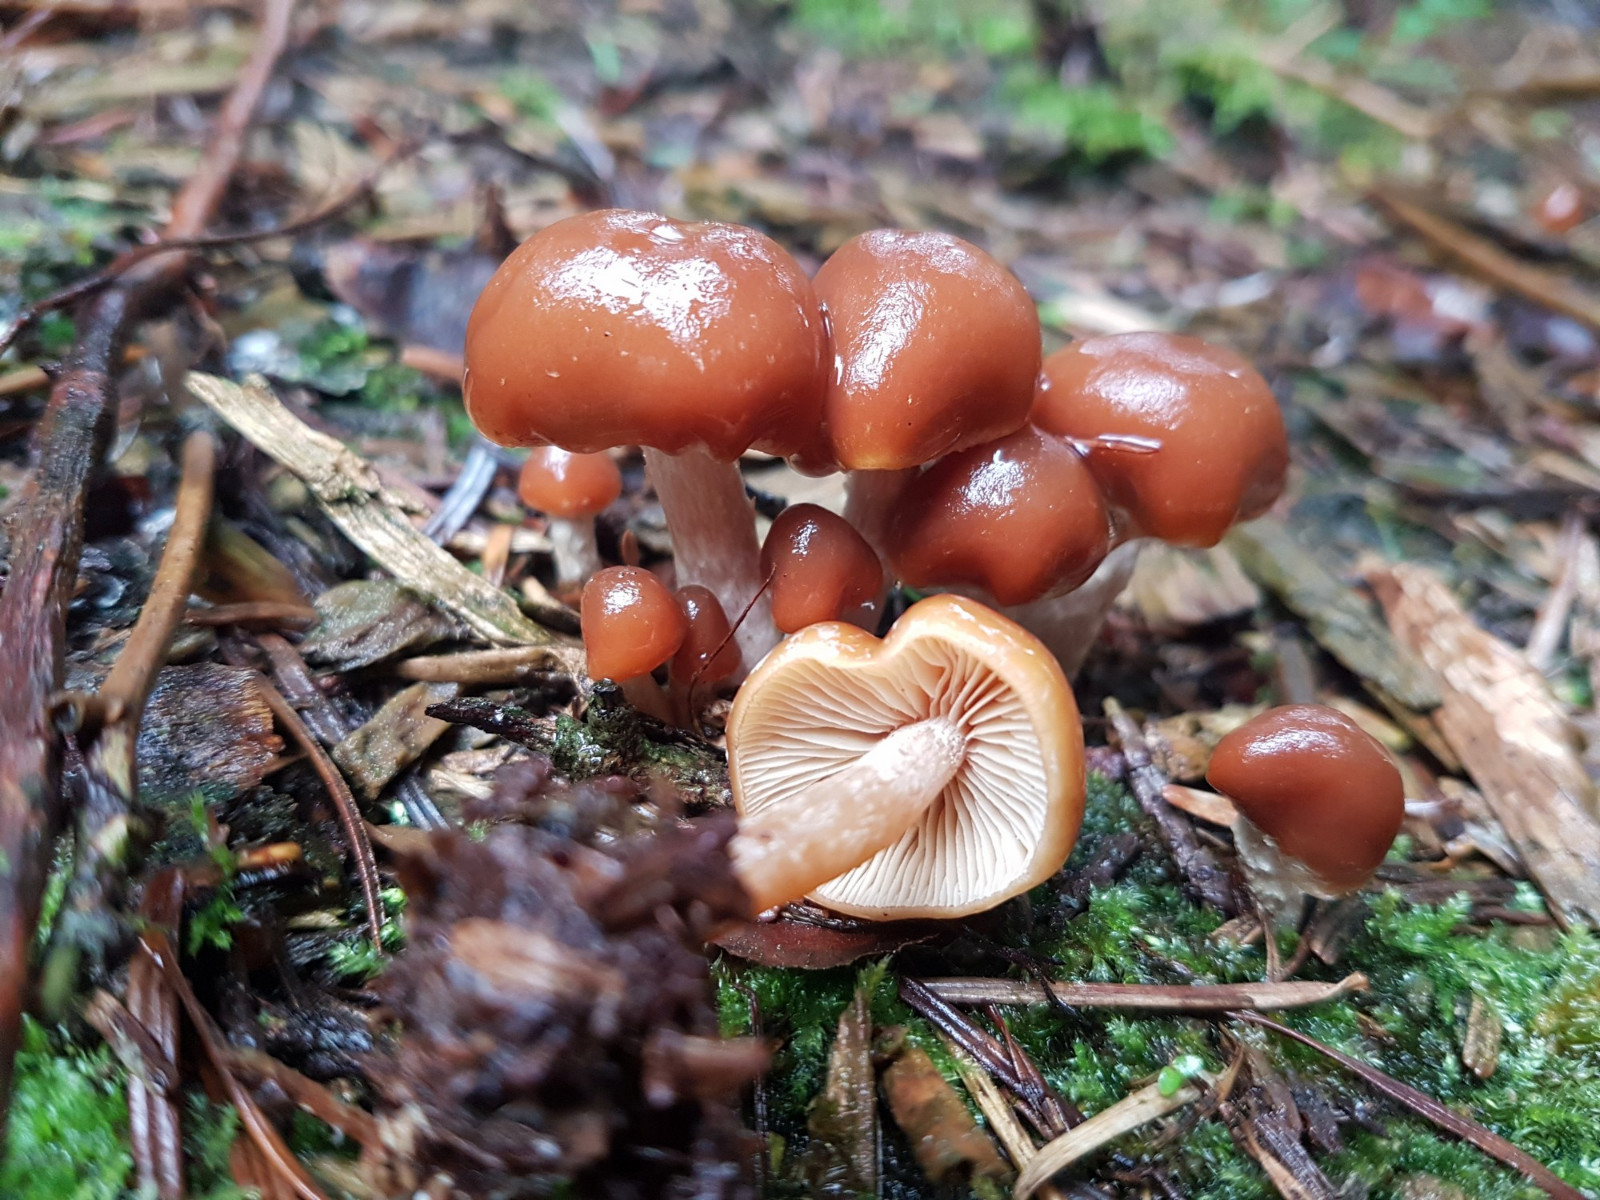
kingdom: Fungi
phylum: Basidiomycota
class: Agaricomycetes
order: Agaricales
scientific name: Agaricales
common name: champignonordenen
